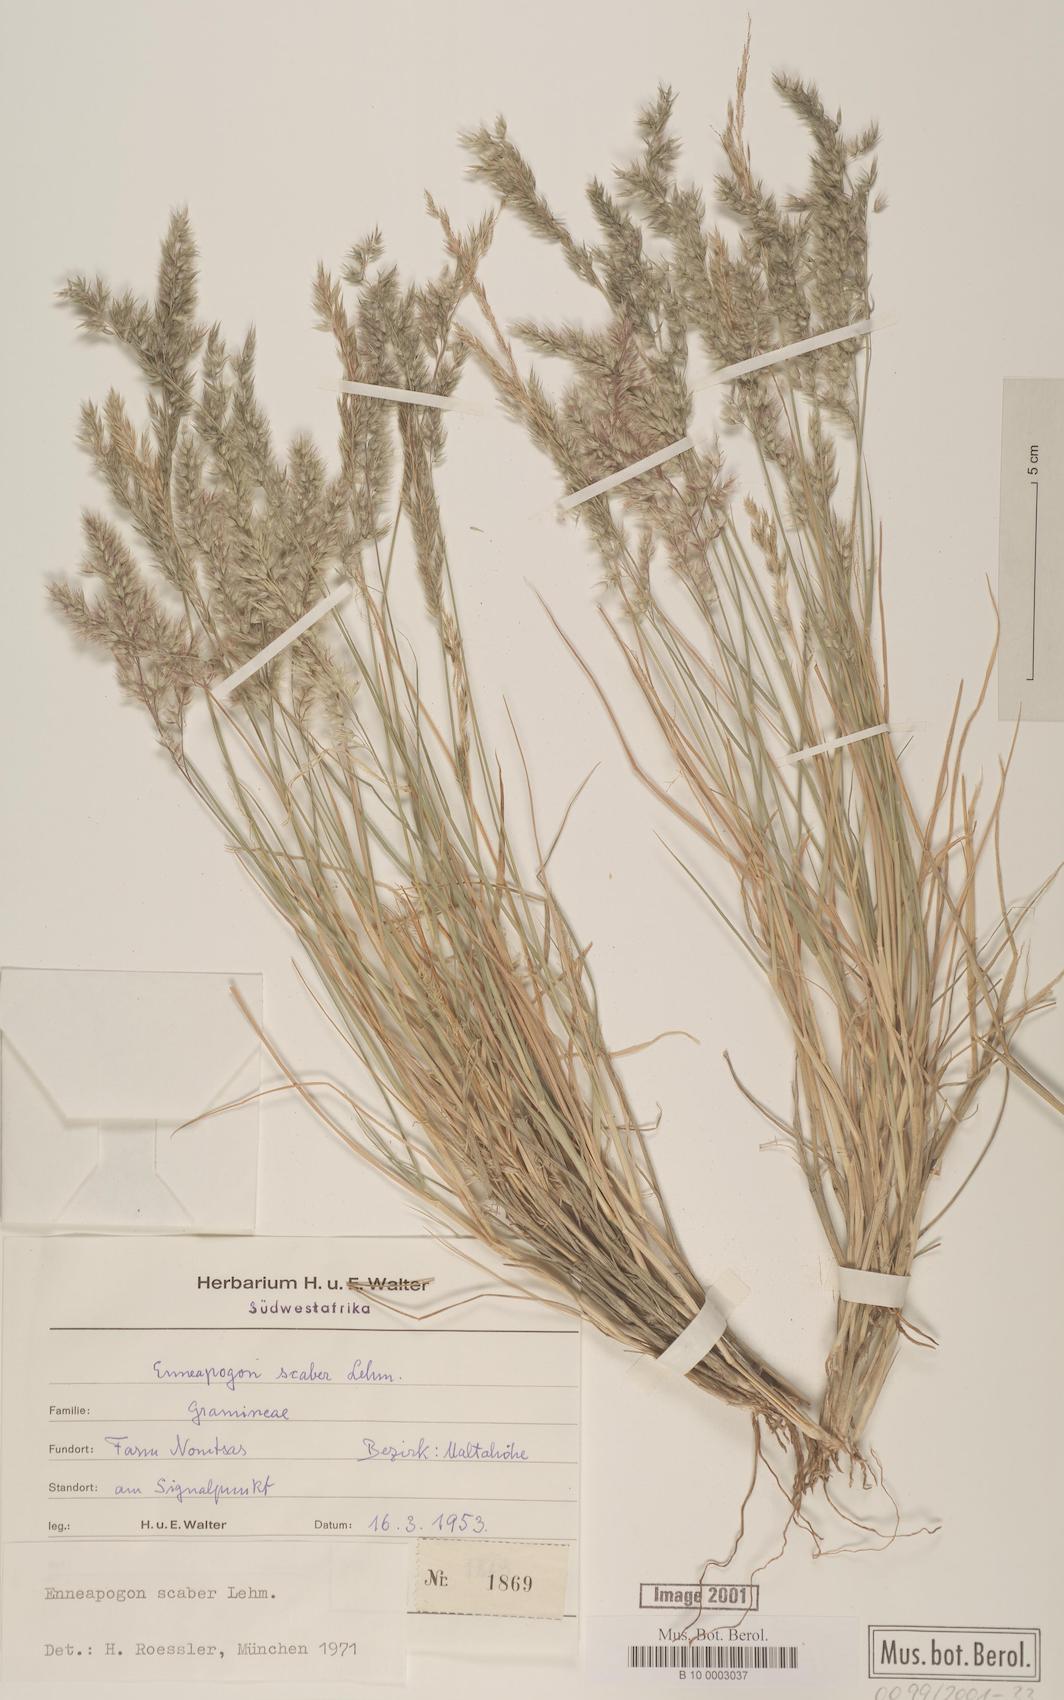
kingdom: Plantae
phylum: Tracheophyta
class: Liliopsida
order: Poales
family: Poaceae
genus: Enneapogon
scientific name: Enneapogon scaber
